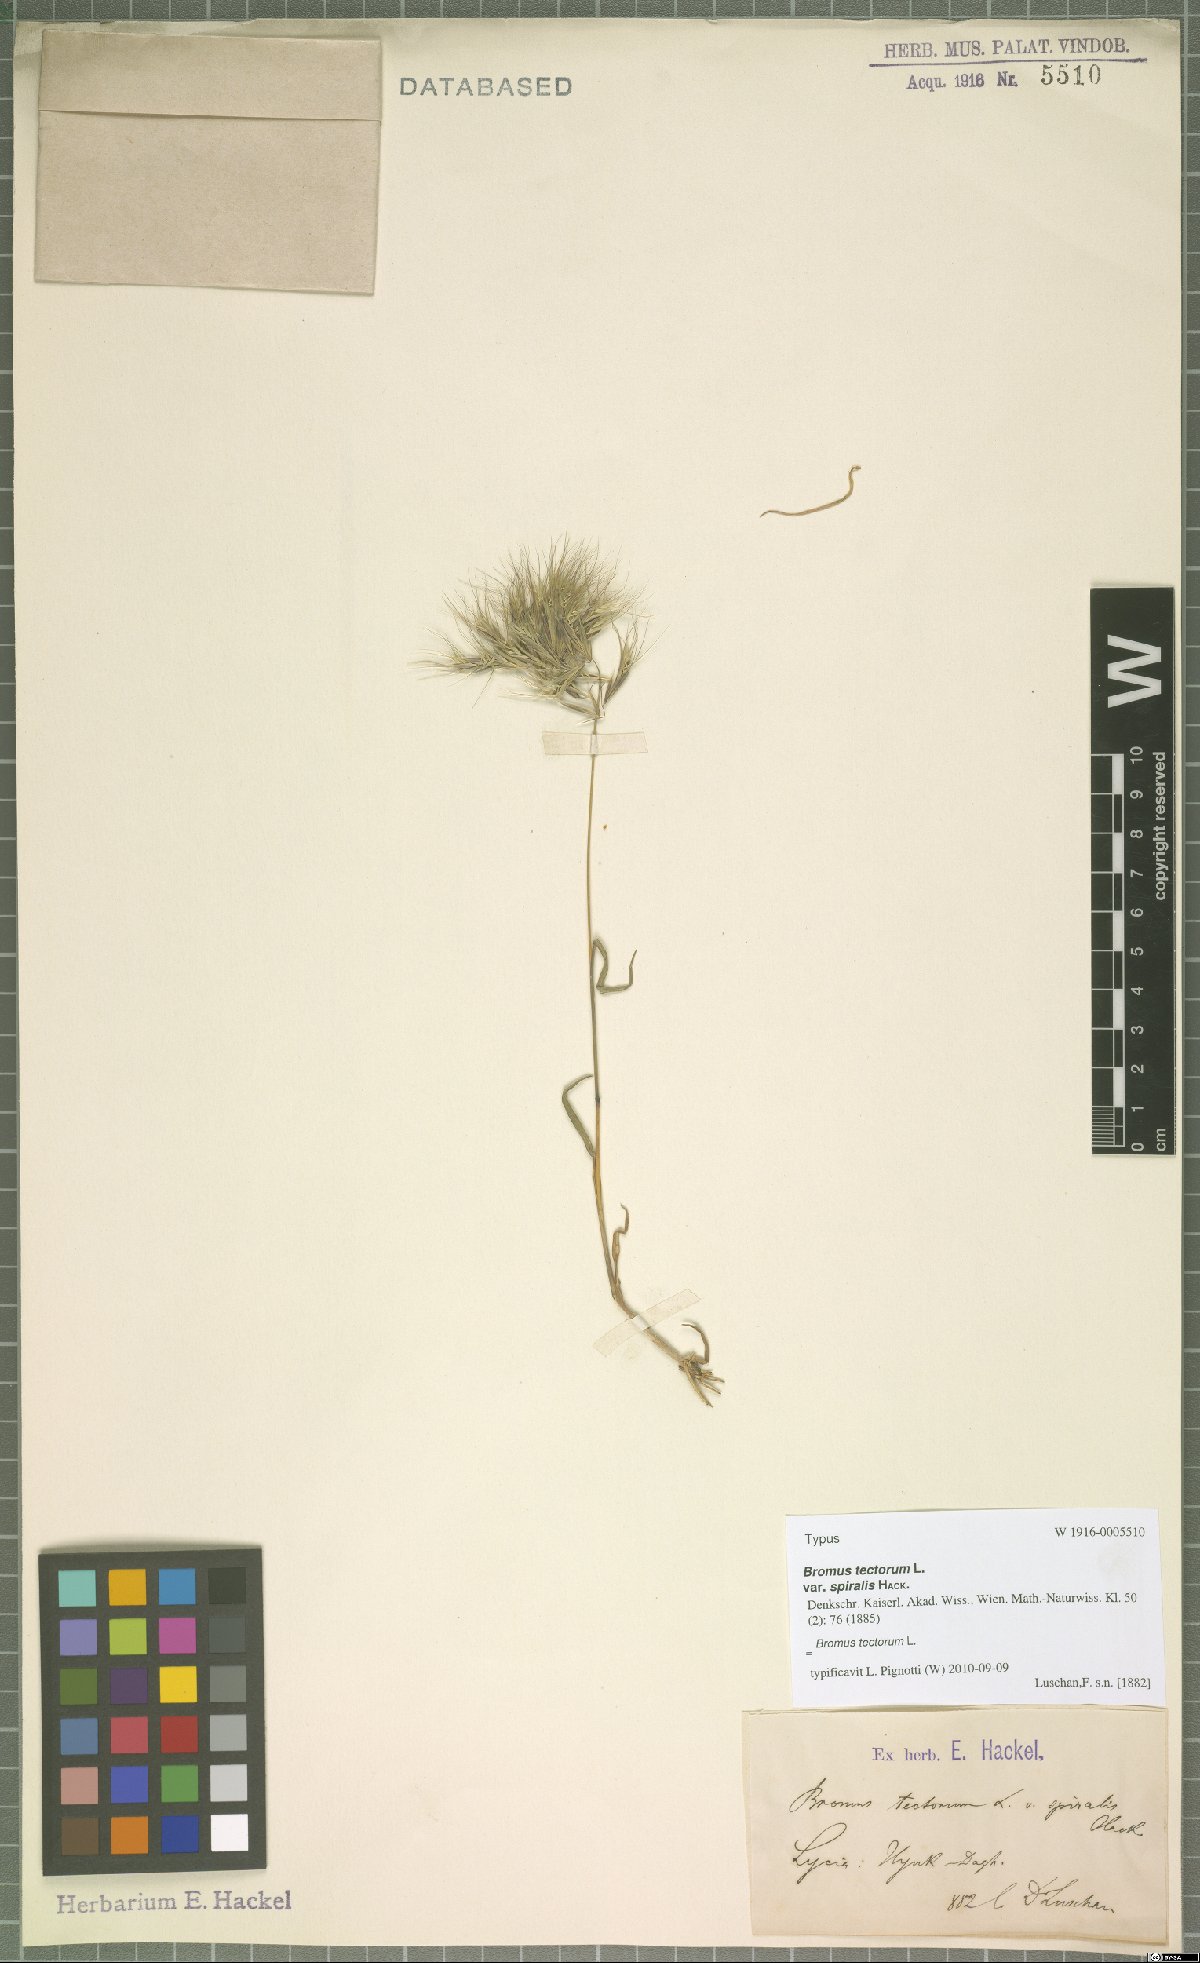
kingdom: Plantae
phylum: Tracheophyta
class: Liliopsida
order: Poales
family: Poaceae
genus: Bromus
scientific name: Bromus tectorum
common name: Cheatgrass
